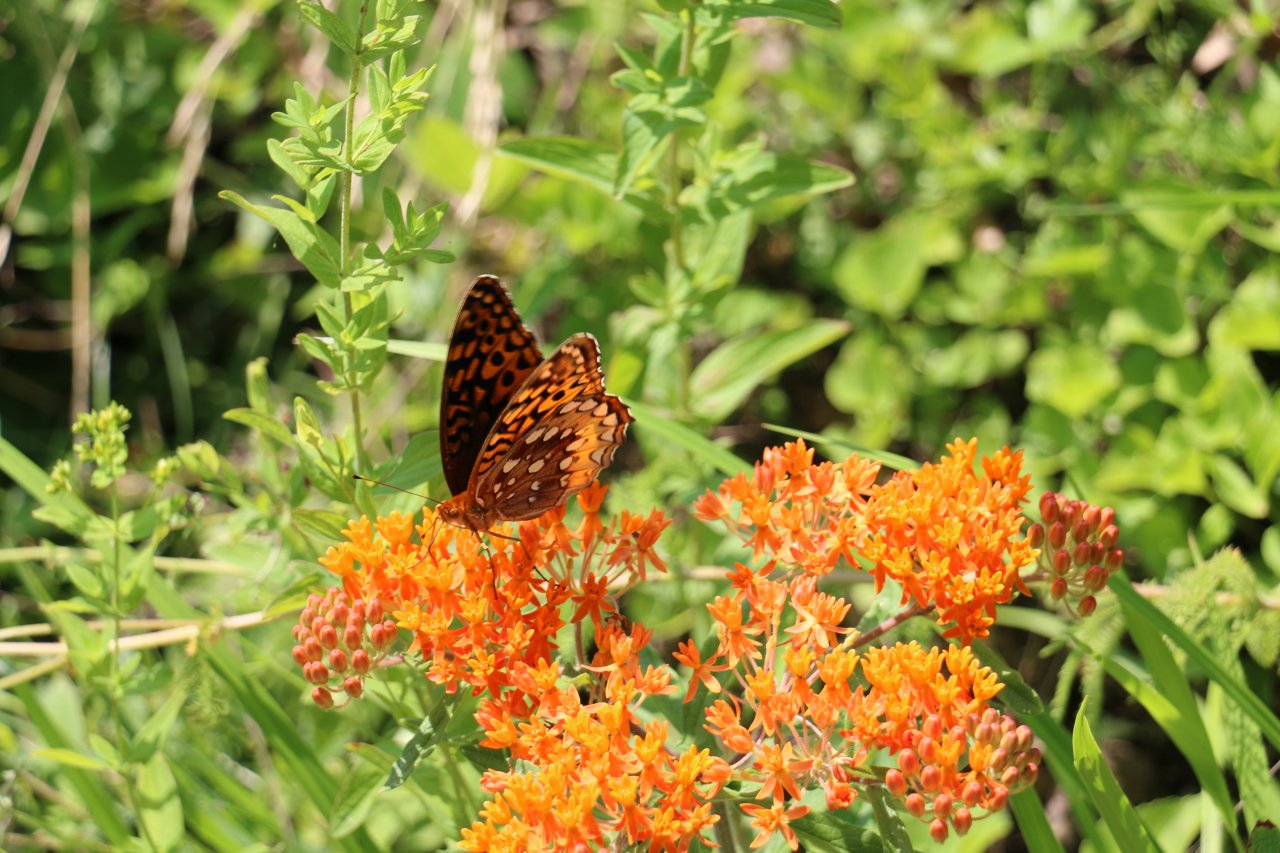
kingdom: Animalia
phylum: Arthropoda
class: Insecta
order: Lepidoptera
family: Nymphalidae
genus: Speyeria
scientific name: Speyeria cybele
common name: Great Spangled Fritillary
